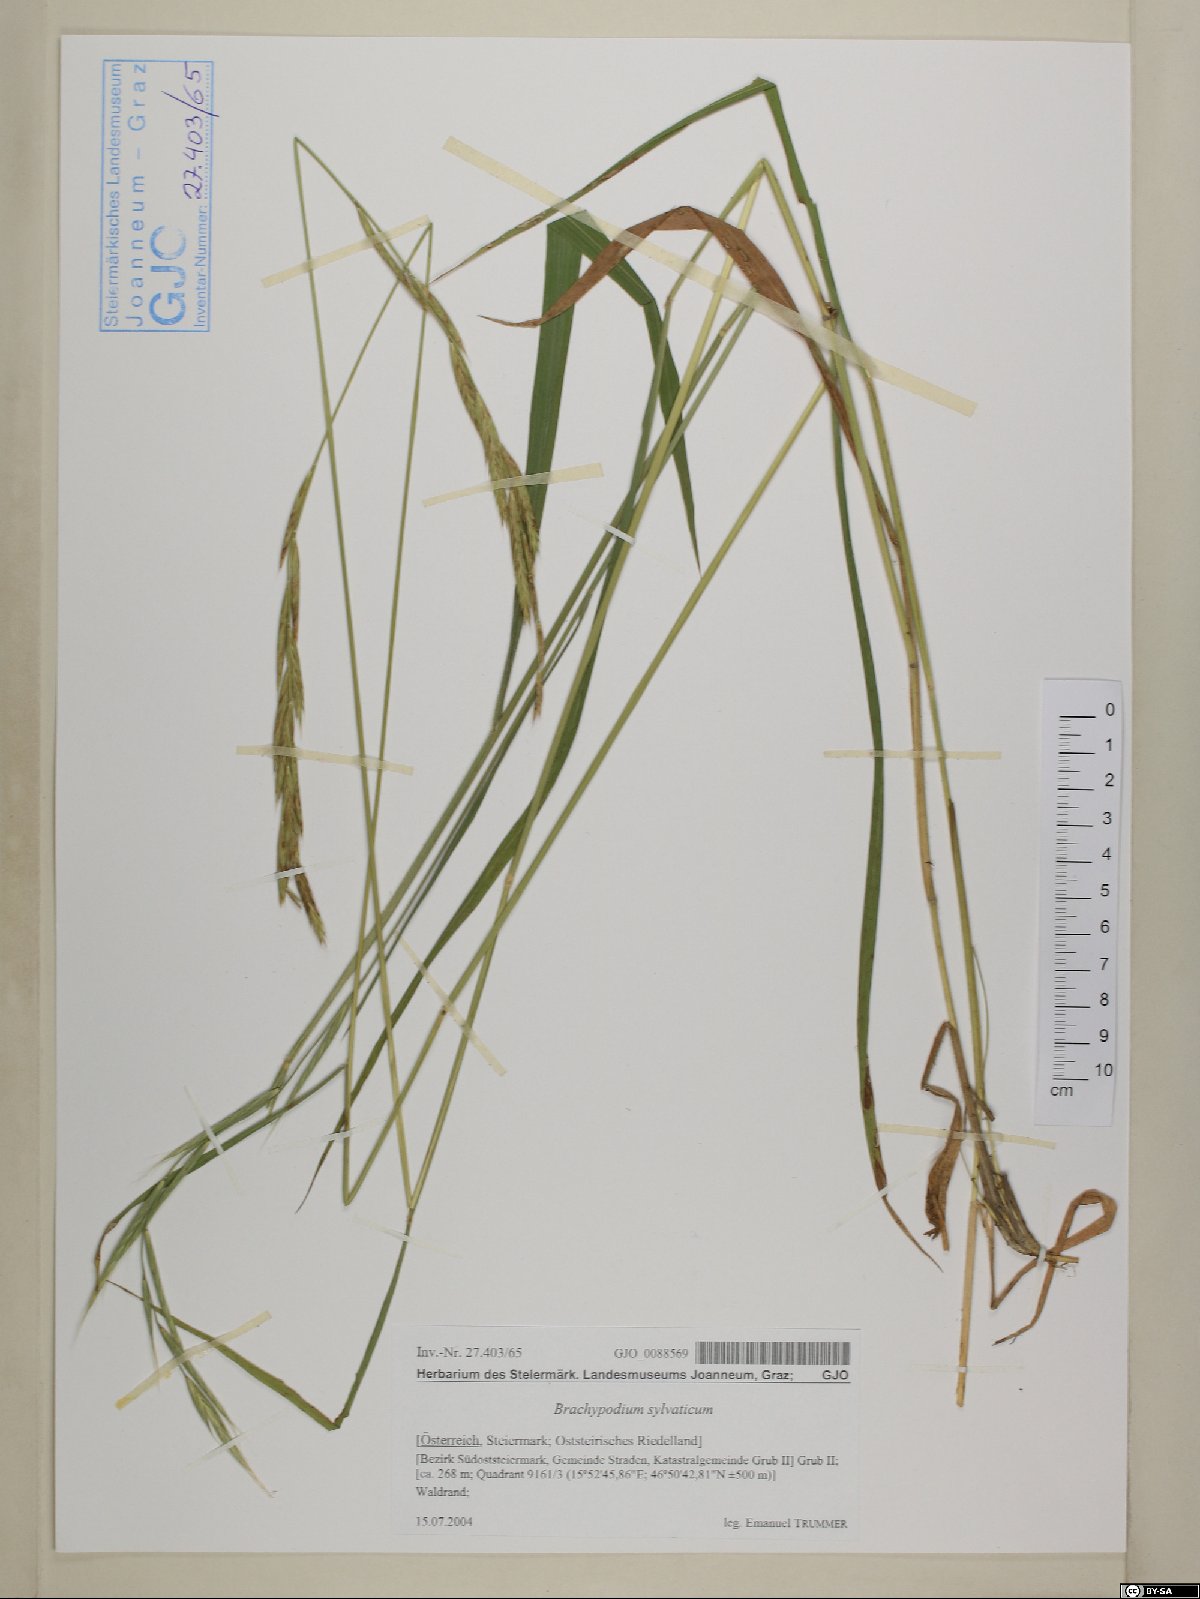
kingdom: Plantae
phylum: Tracheophyta
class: Liliopsida
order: Poales
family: Poaceae
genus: Brachypodium
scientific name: Brachypodium sylvaticum
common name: False-brome
